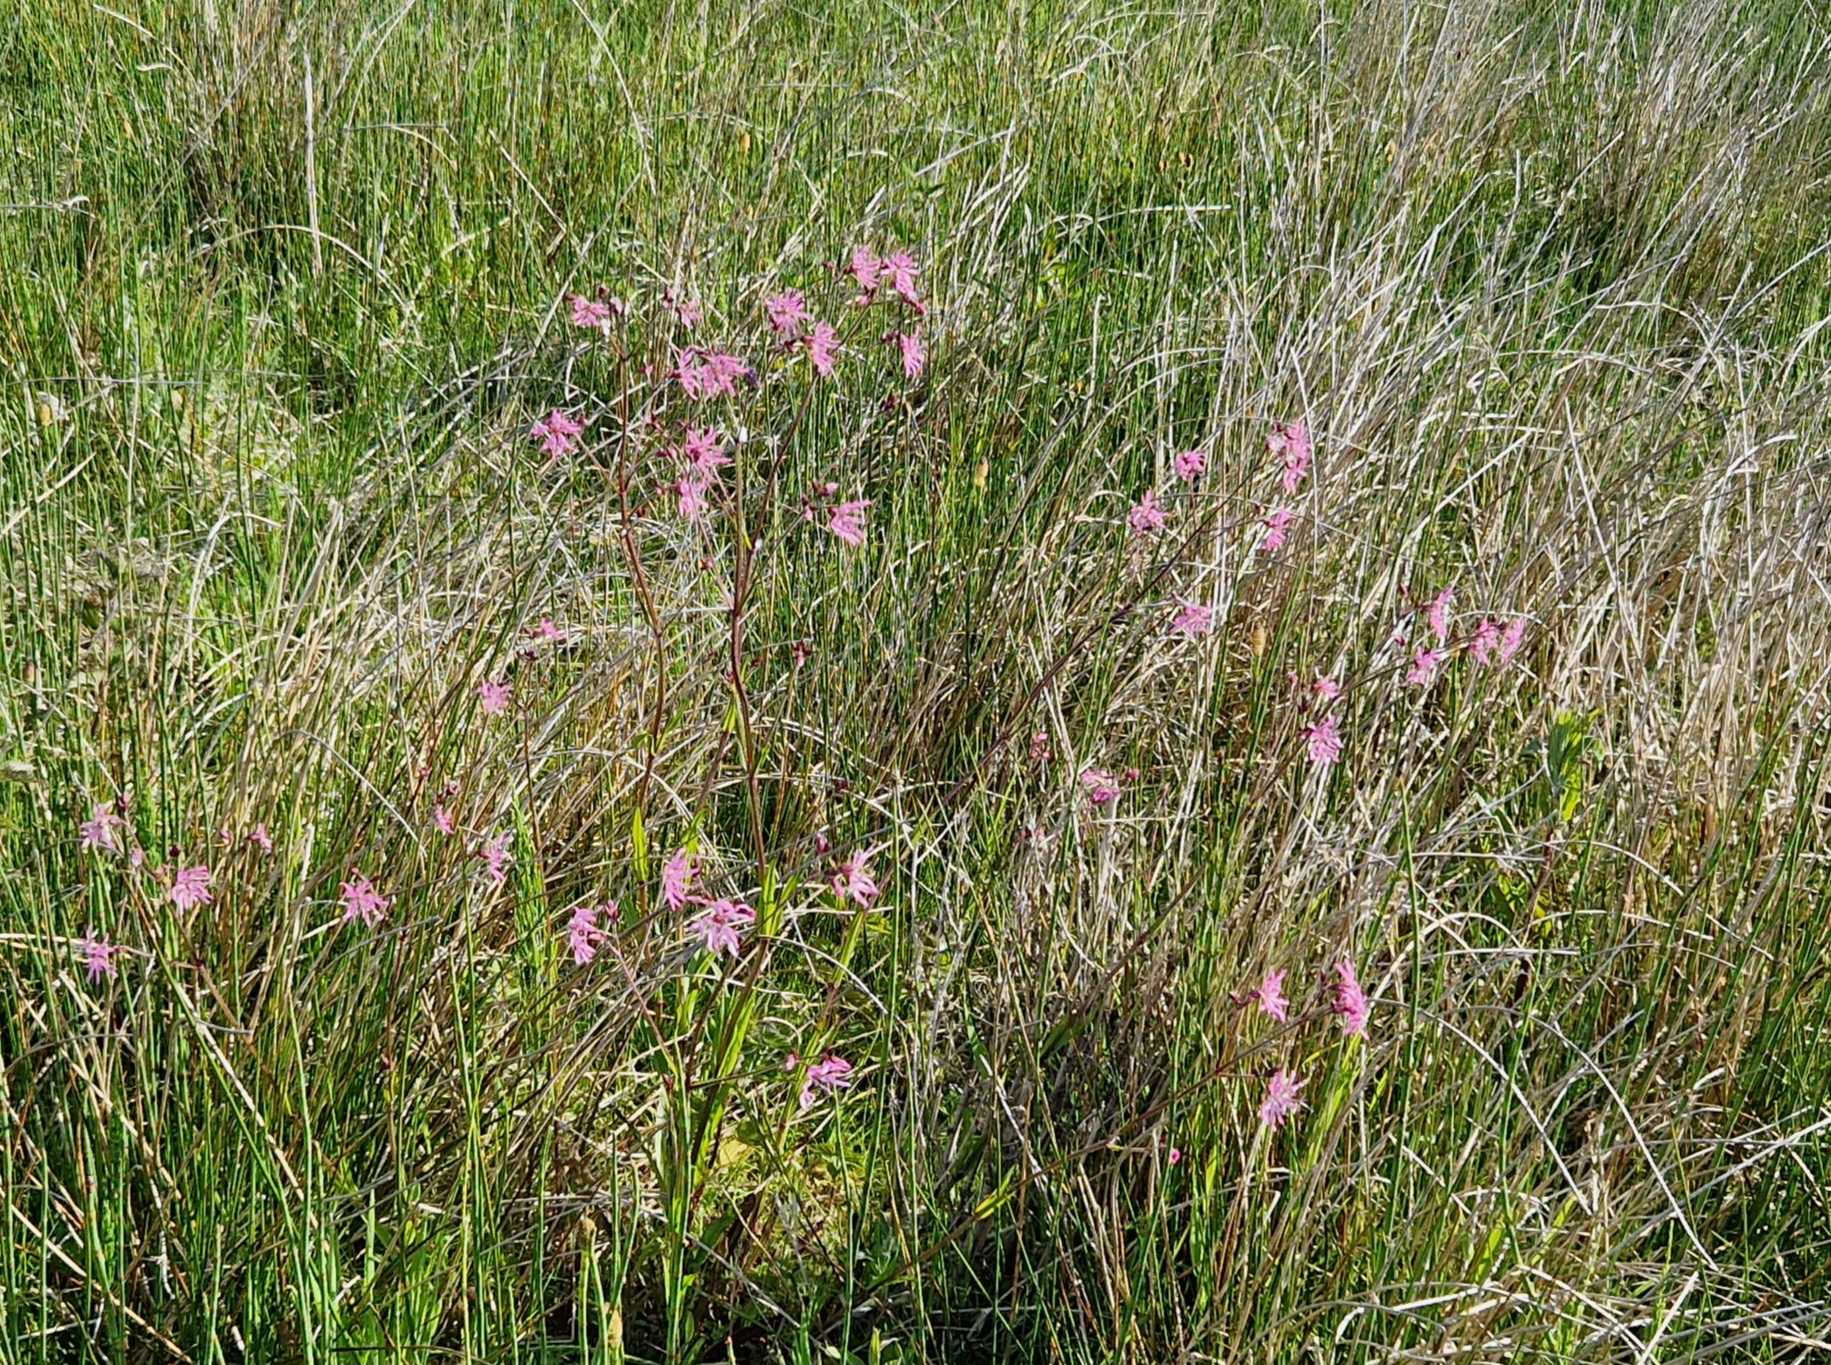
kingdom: Plantae
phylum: Tracheophyta
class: Magnoliopsida
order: Caryophyllales
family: Caryophyllaceae
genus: Silene
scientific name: Silene flos-cuculi
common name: Trævlekrone
